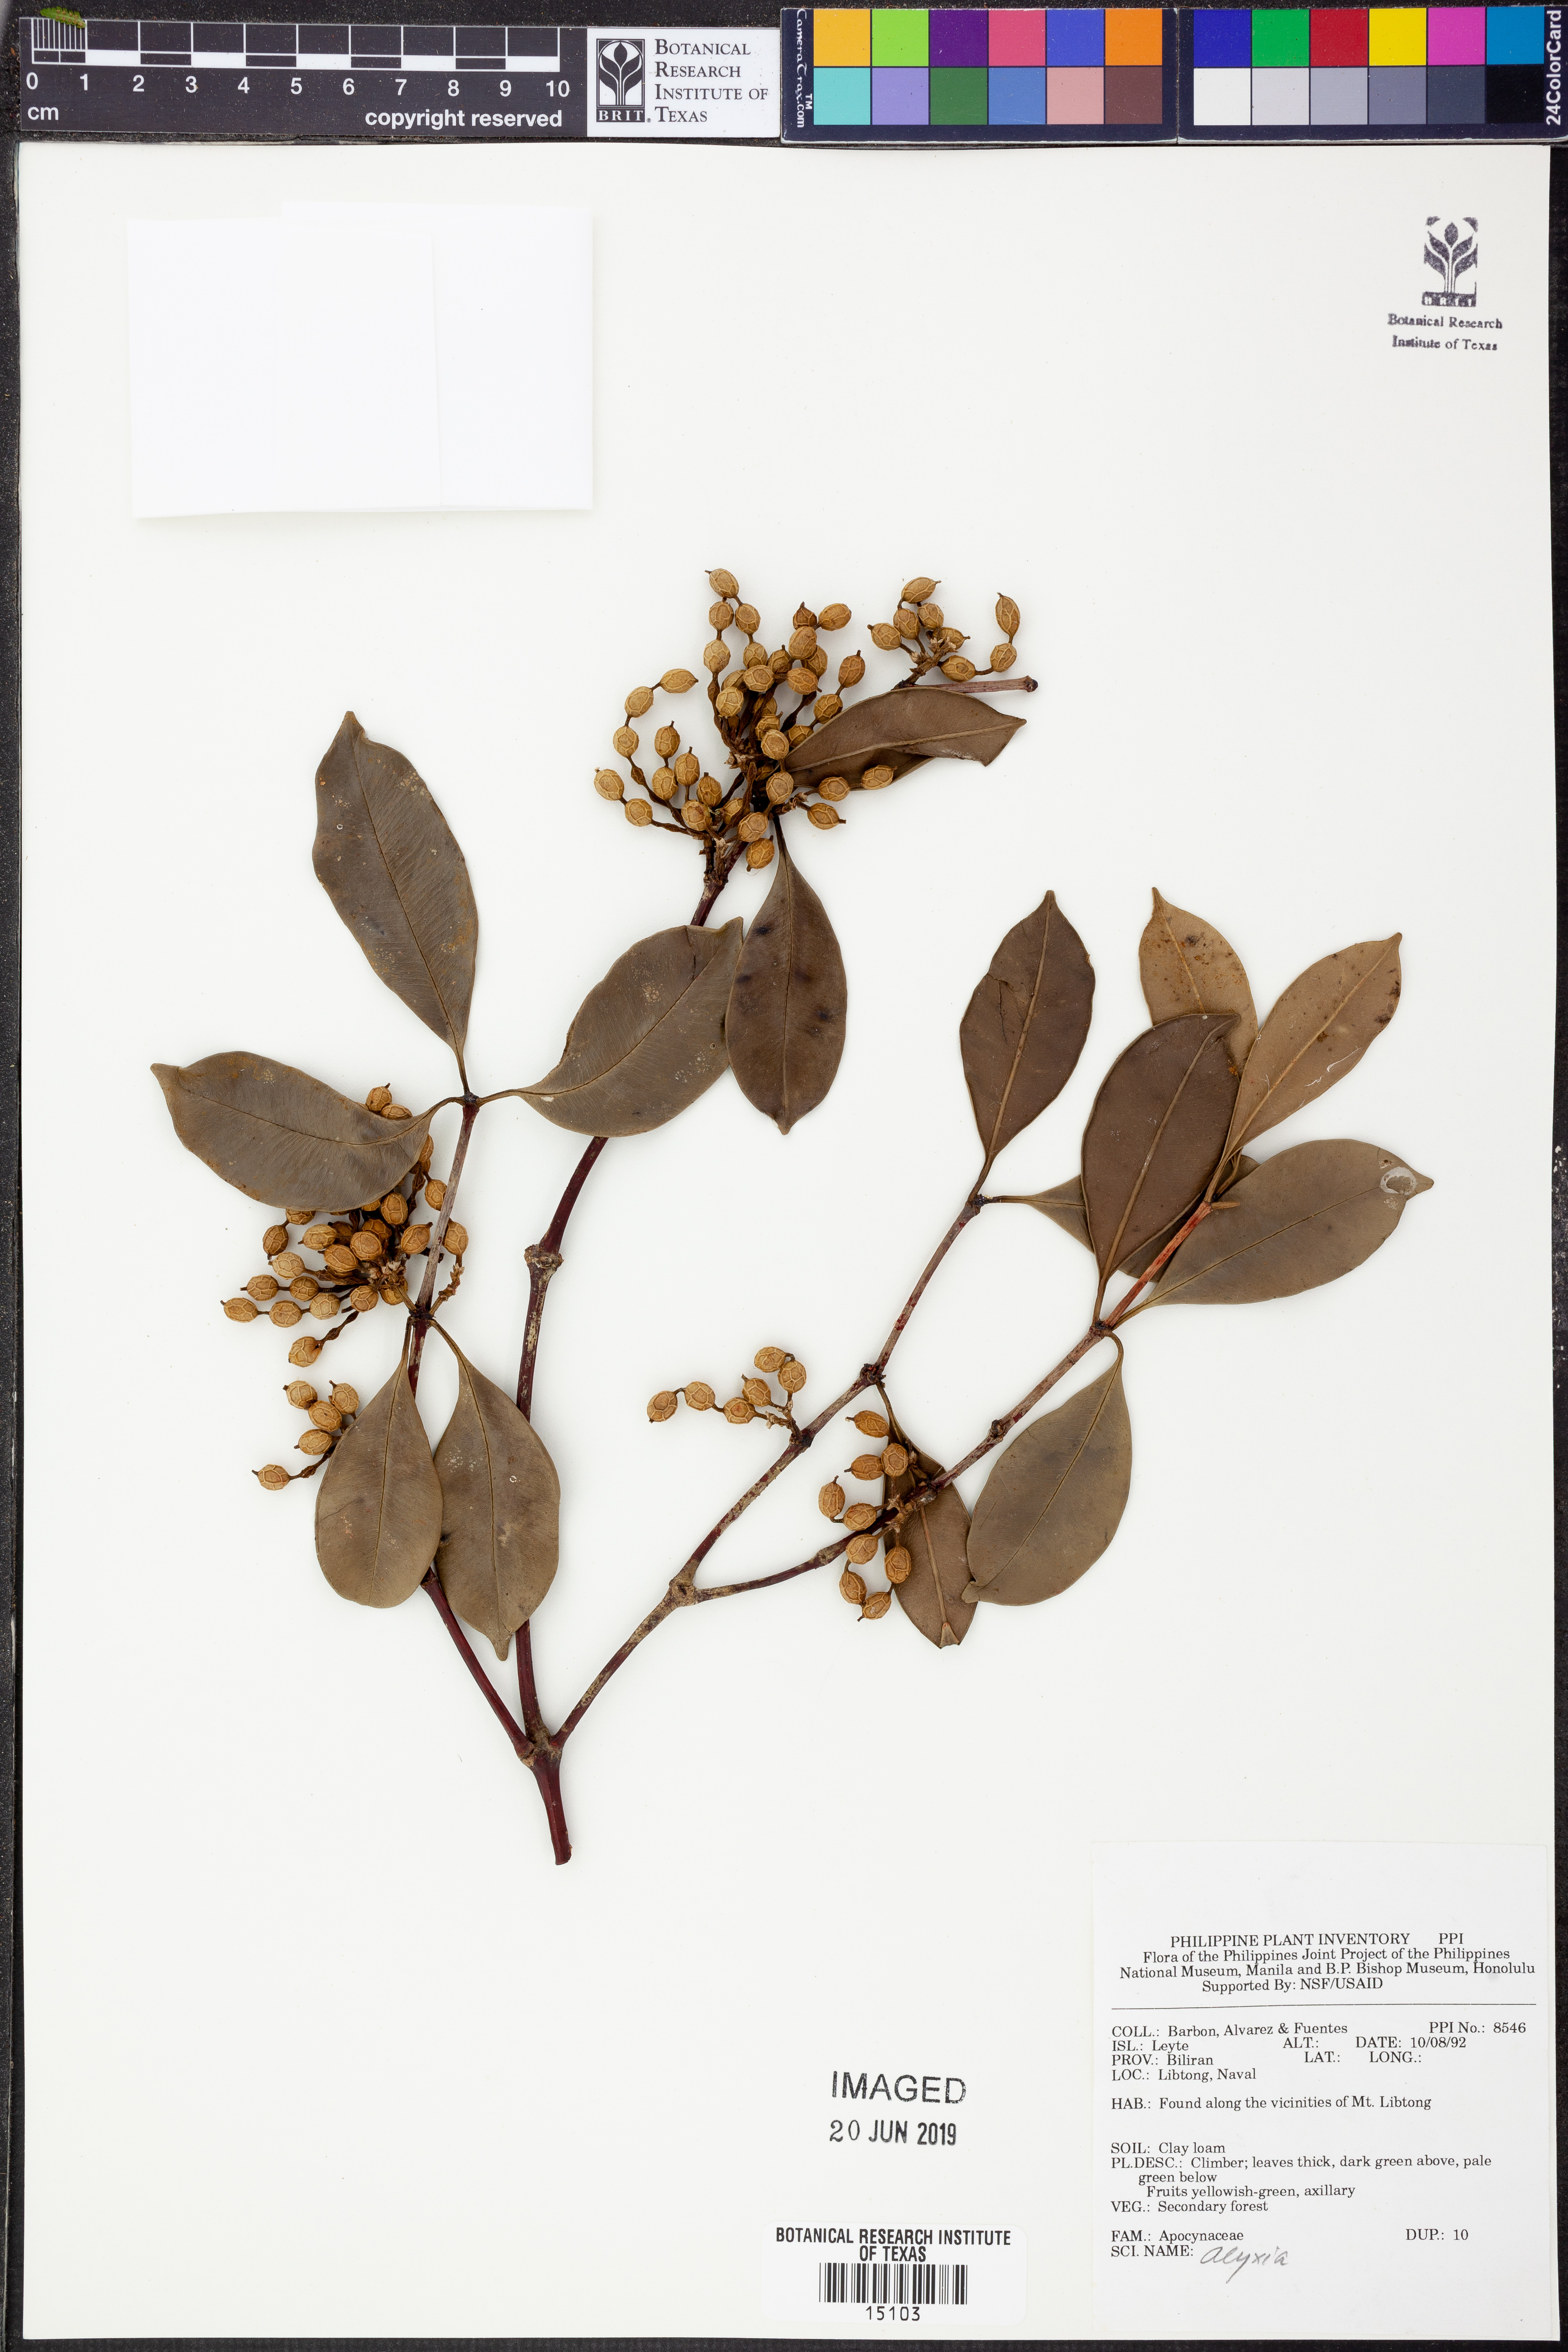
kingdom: Plantae
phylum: Tracheophyta
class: Magnoliopsida
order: Gentianales
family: Apocynaceae
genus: Alyxia
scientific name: Alyxia
